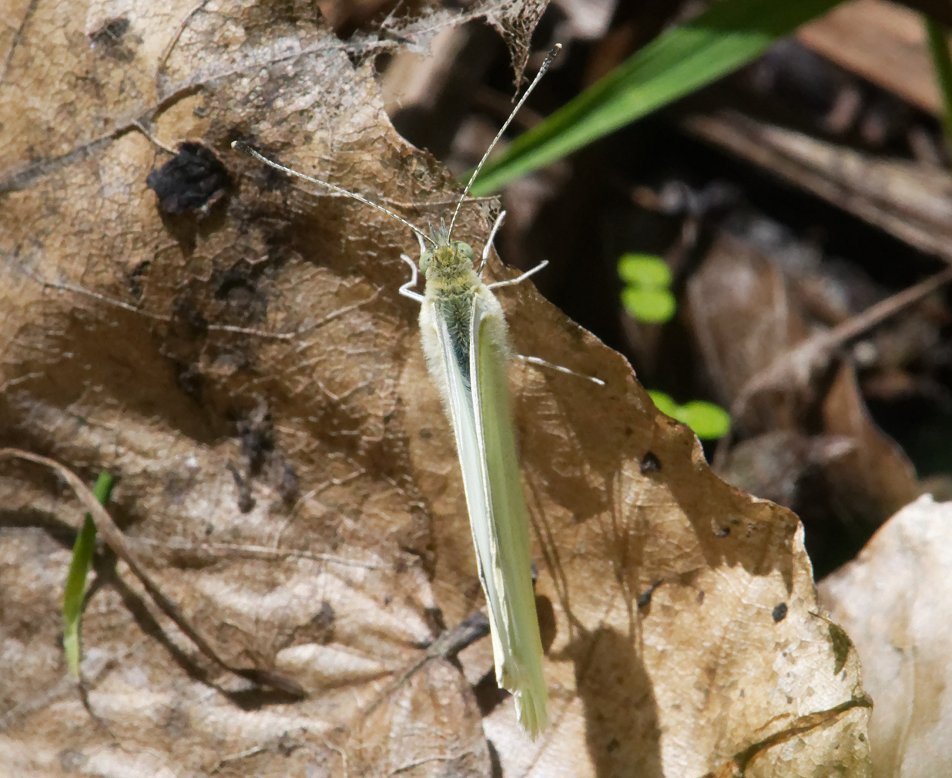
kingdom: Animalia
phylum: Arthropoda
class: Insecta
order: Lepidoptera
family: Pieridae
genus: Pieris
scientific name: Pieris rapae
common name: Cabbage White
